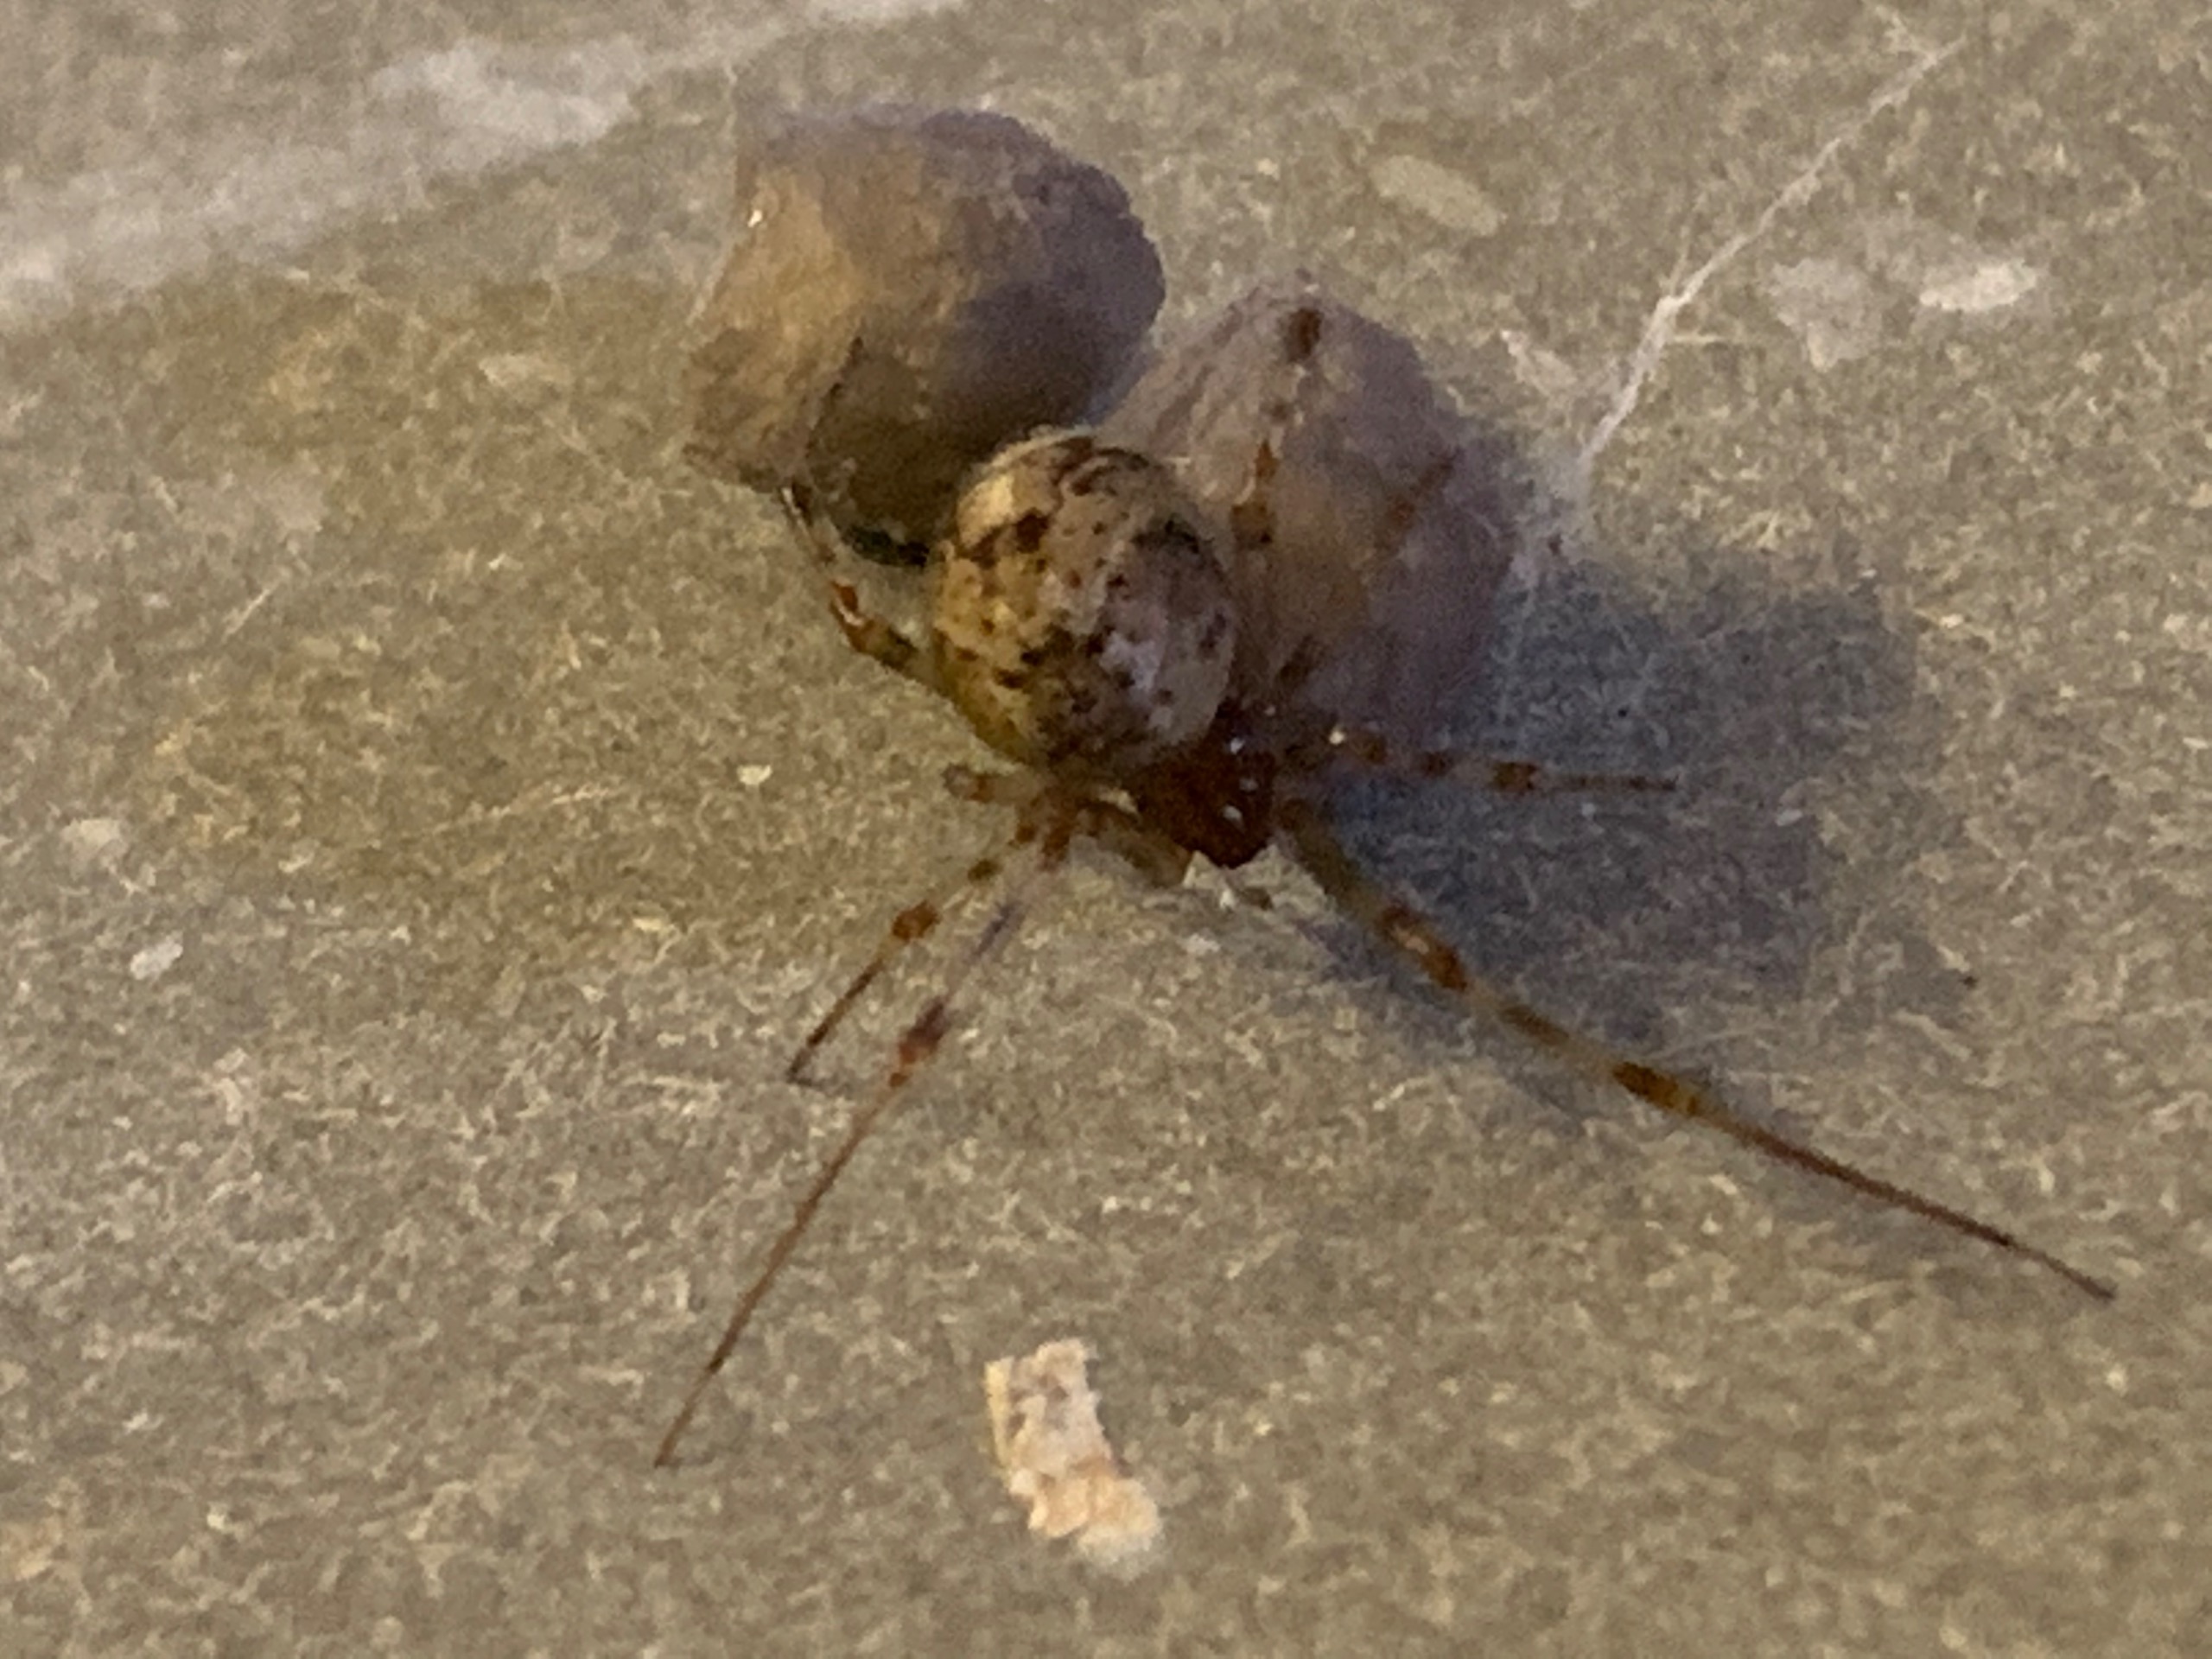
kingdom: Animalia
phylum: Arthropoda
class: Arachnida
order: Araneae
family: Theridiidae
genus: Parasteatoda
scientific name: Parasteatoda tepidariorum
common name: Væksthusspinder
